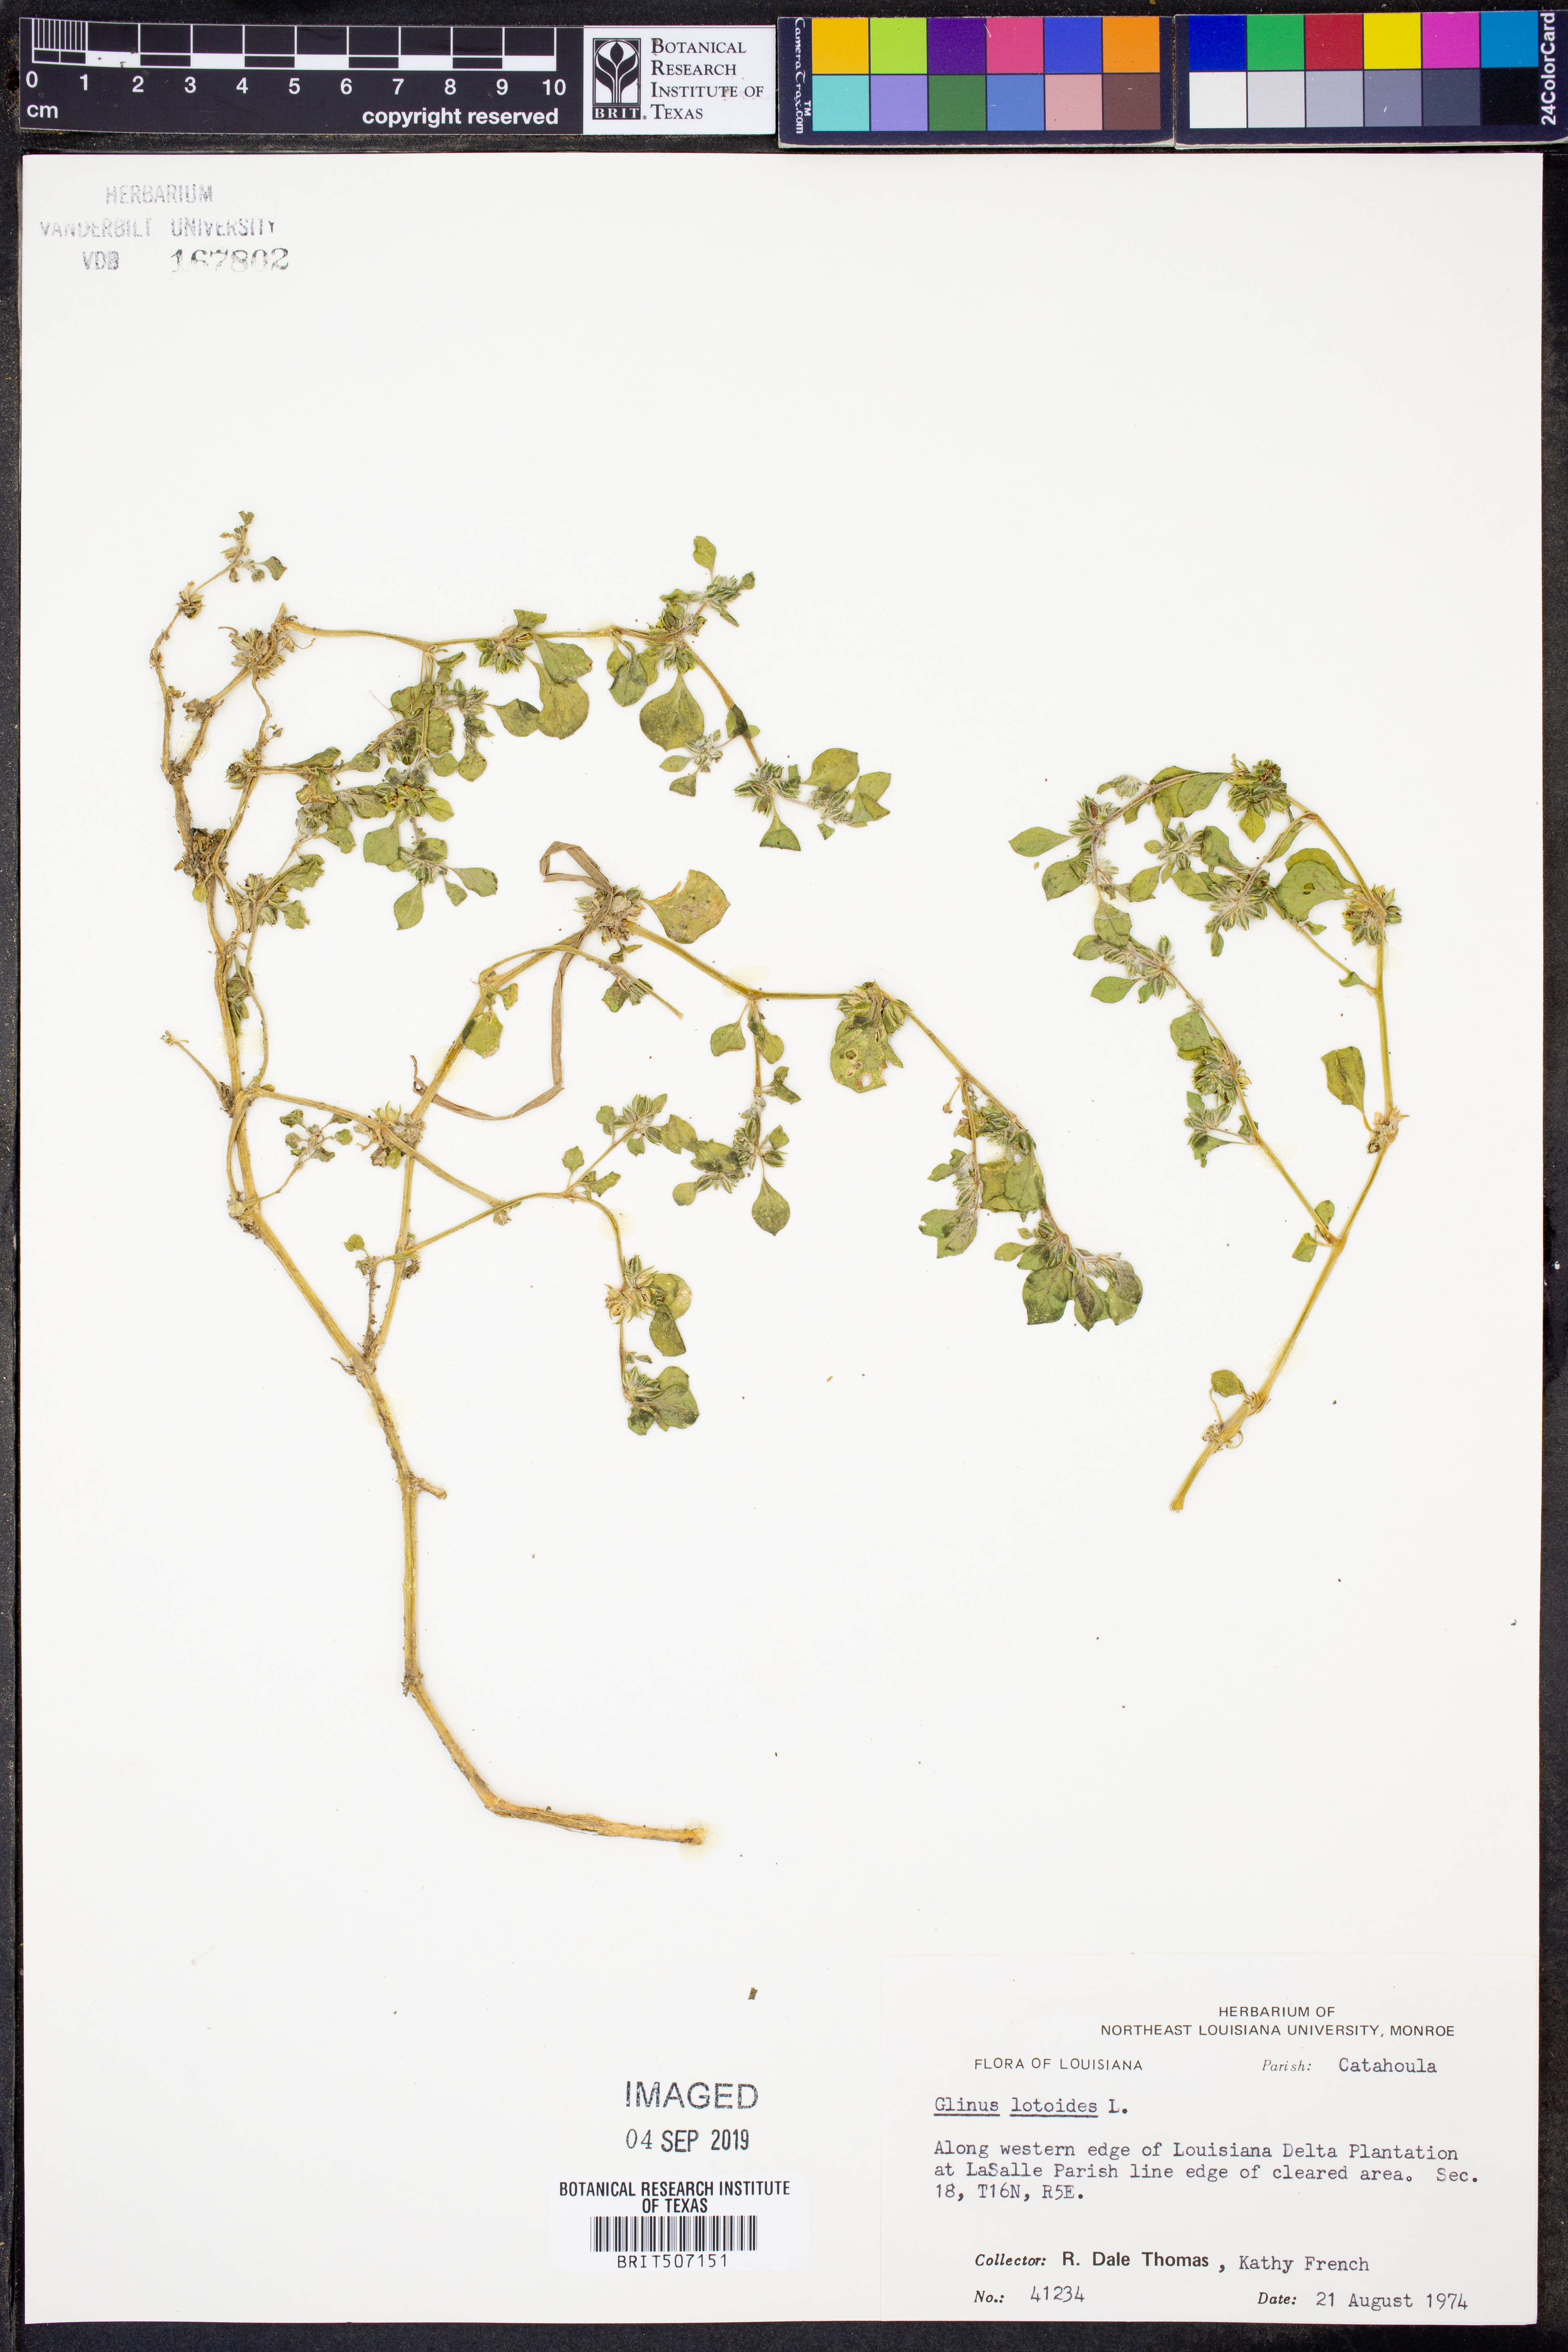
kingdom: Plantae
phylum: Tracheophyta
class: Magnoliopsida
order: Caryophyllales
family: Molluginaceae
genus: Glinus
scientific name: Glinus lotoides
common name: Lotus sweetjuice
